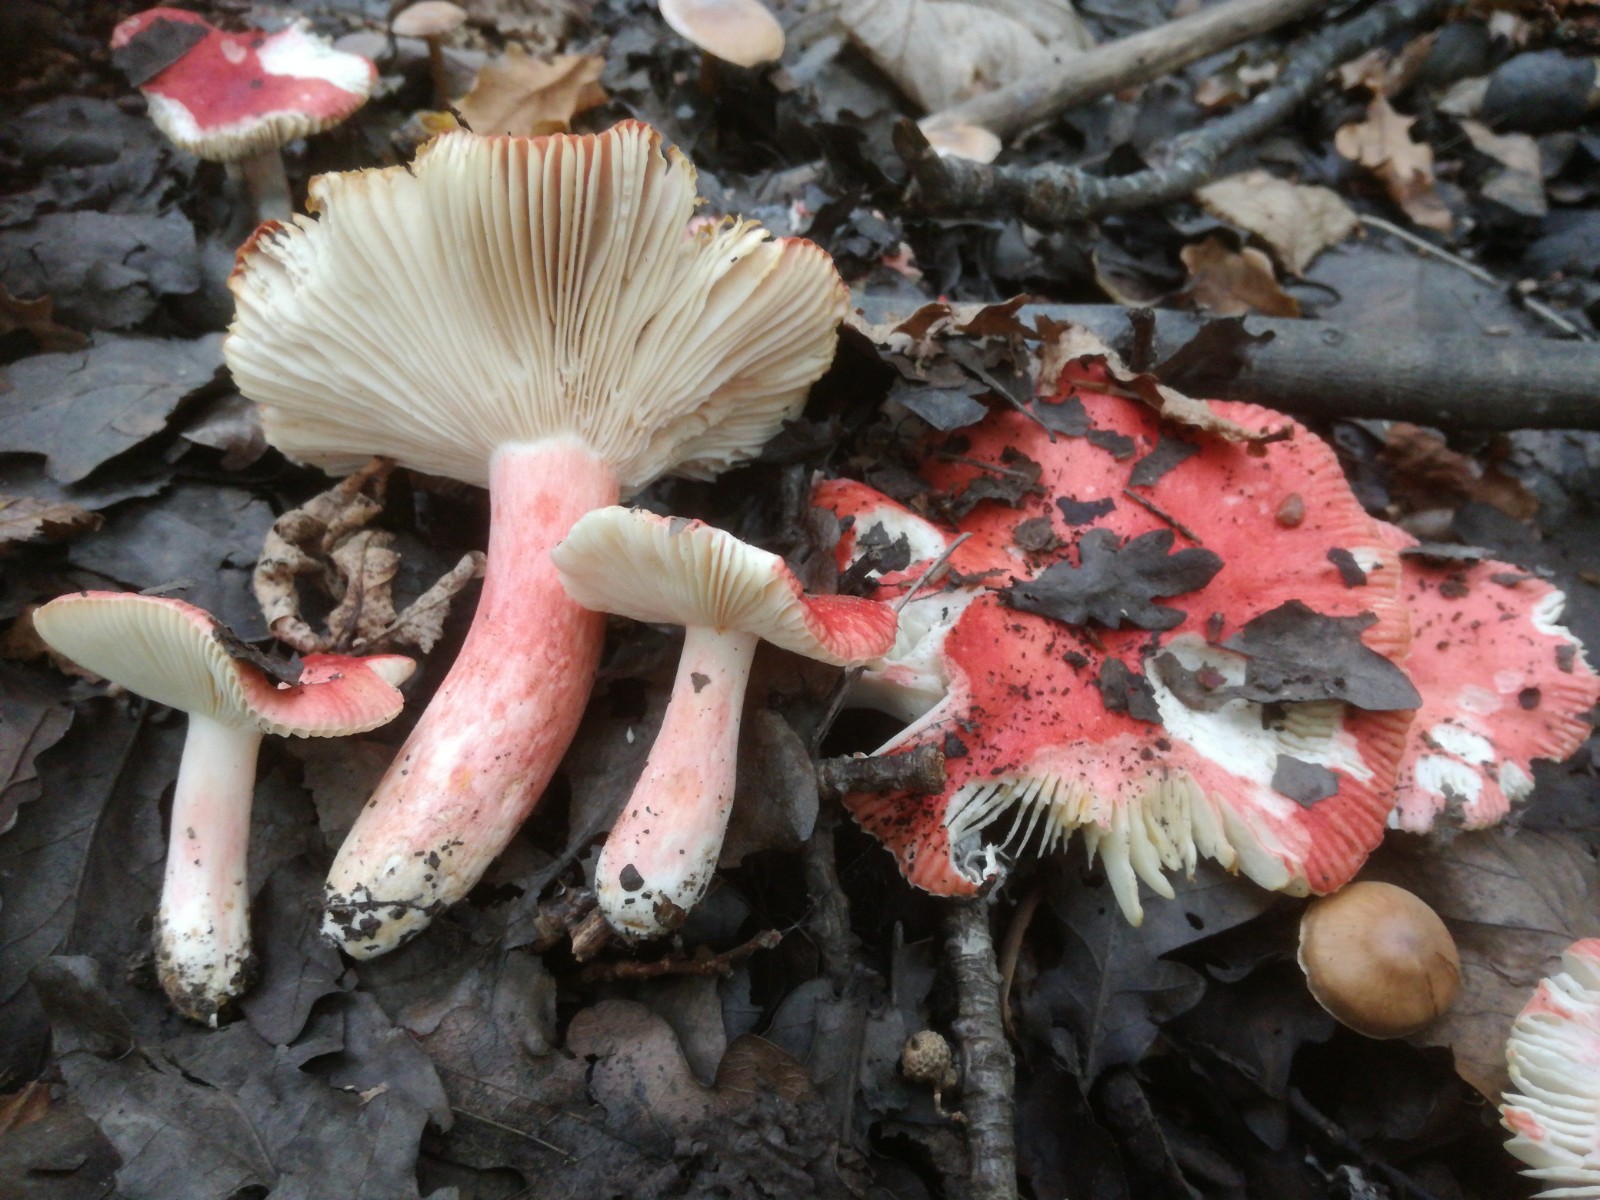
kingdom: Fungi
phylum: Basidiomycota
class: Agaricomycetes
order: Russulales
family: Russulaceae
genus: Russula
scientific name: Russula luteotacta
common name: gulplettet gift-skørhat
